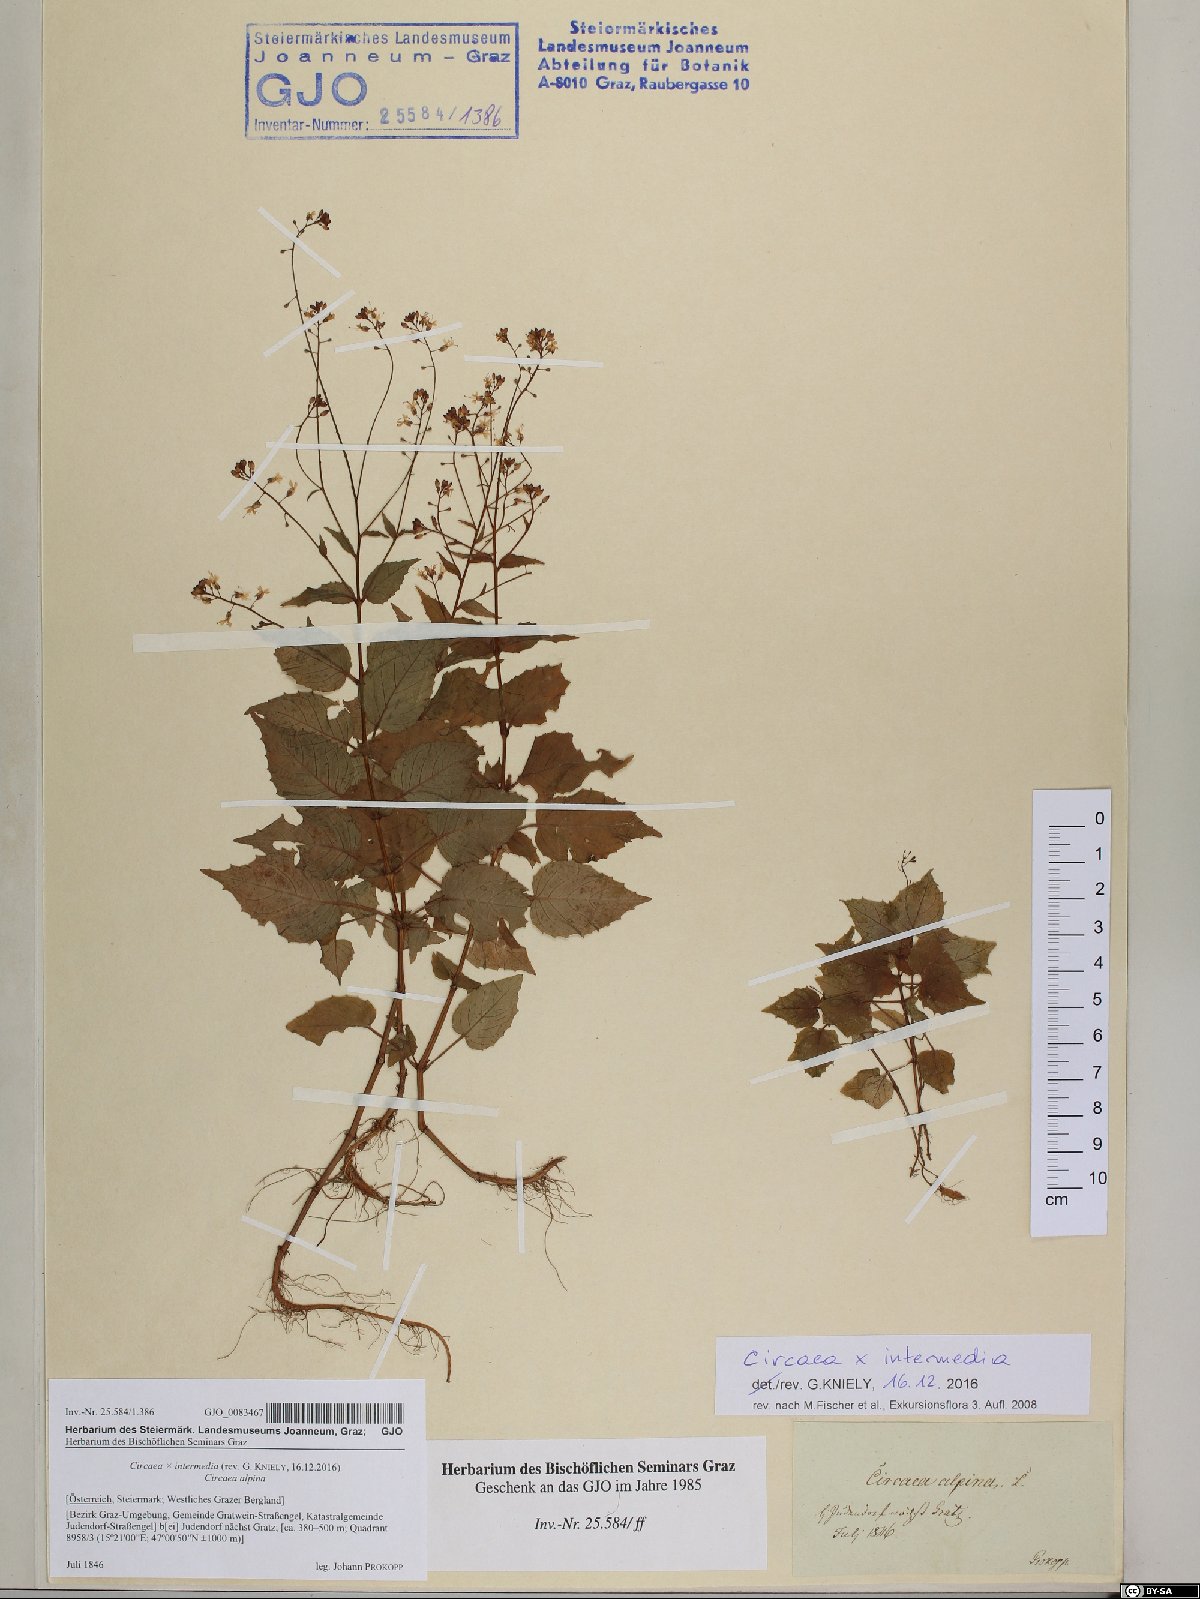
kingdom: Plantae
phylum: Tracheophyta
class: Magnoliopsida
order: Myrtales
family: Onagraceae
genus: Circaea
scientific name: Circaea intermedia
